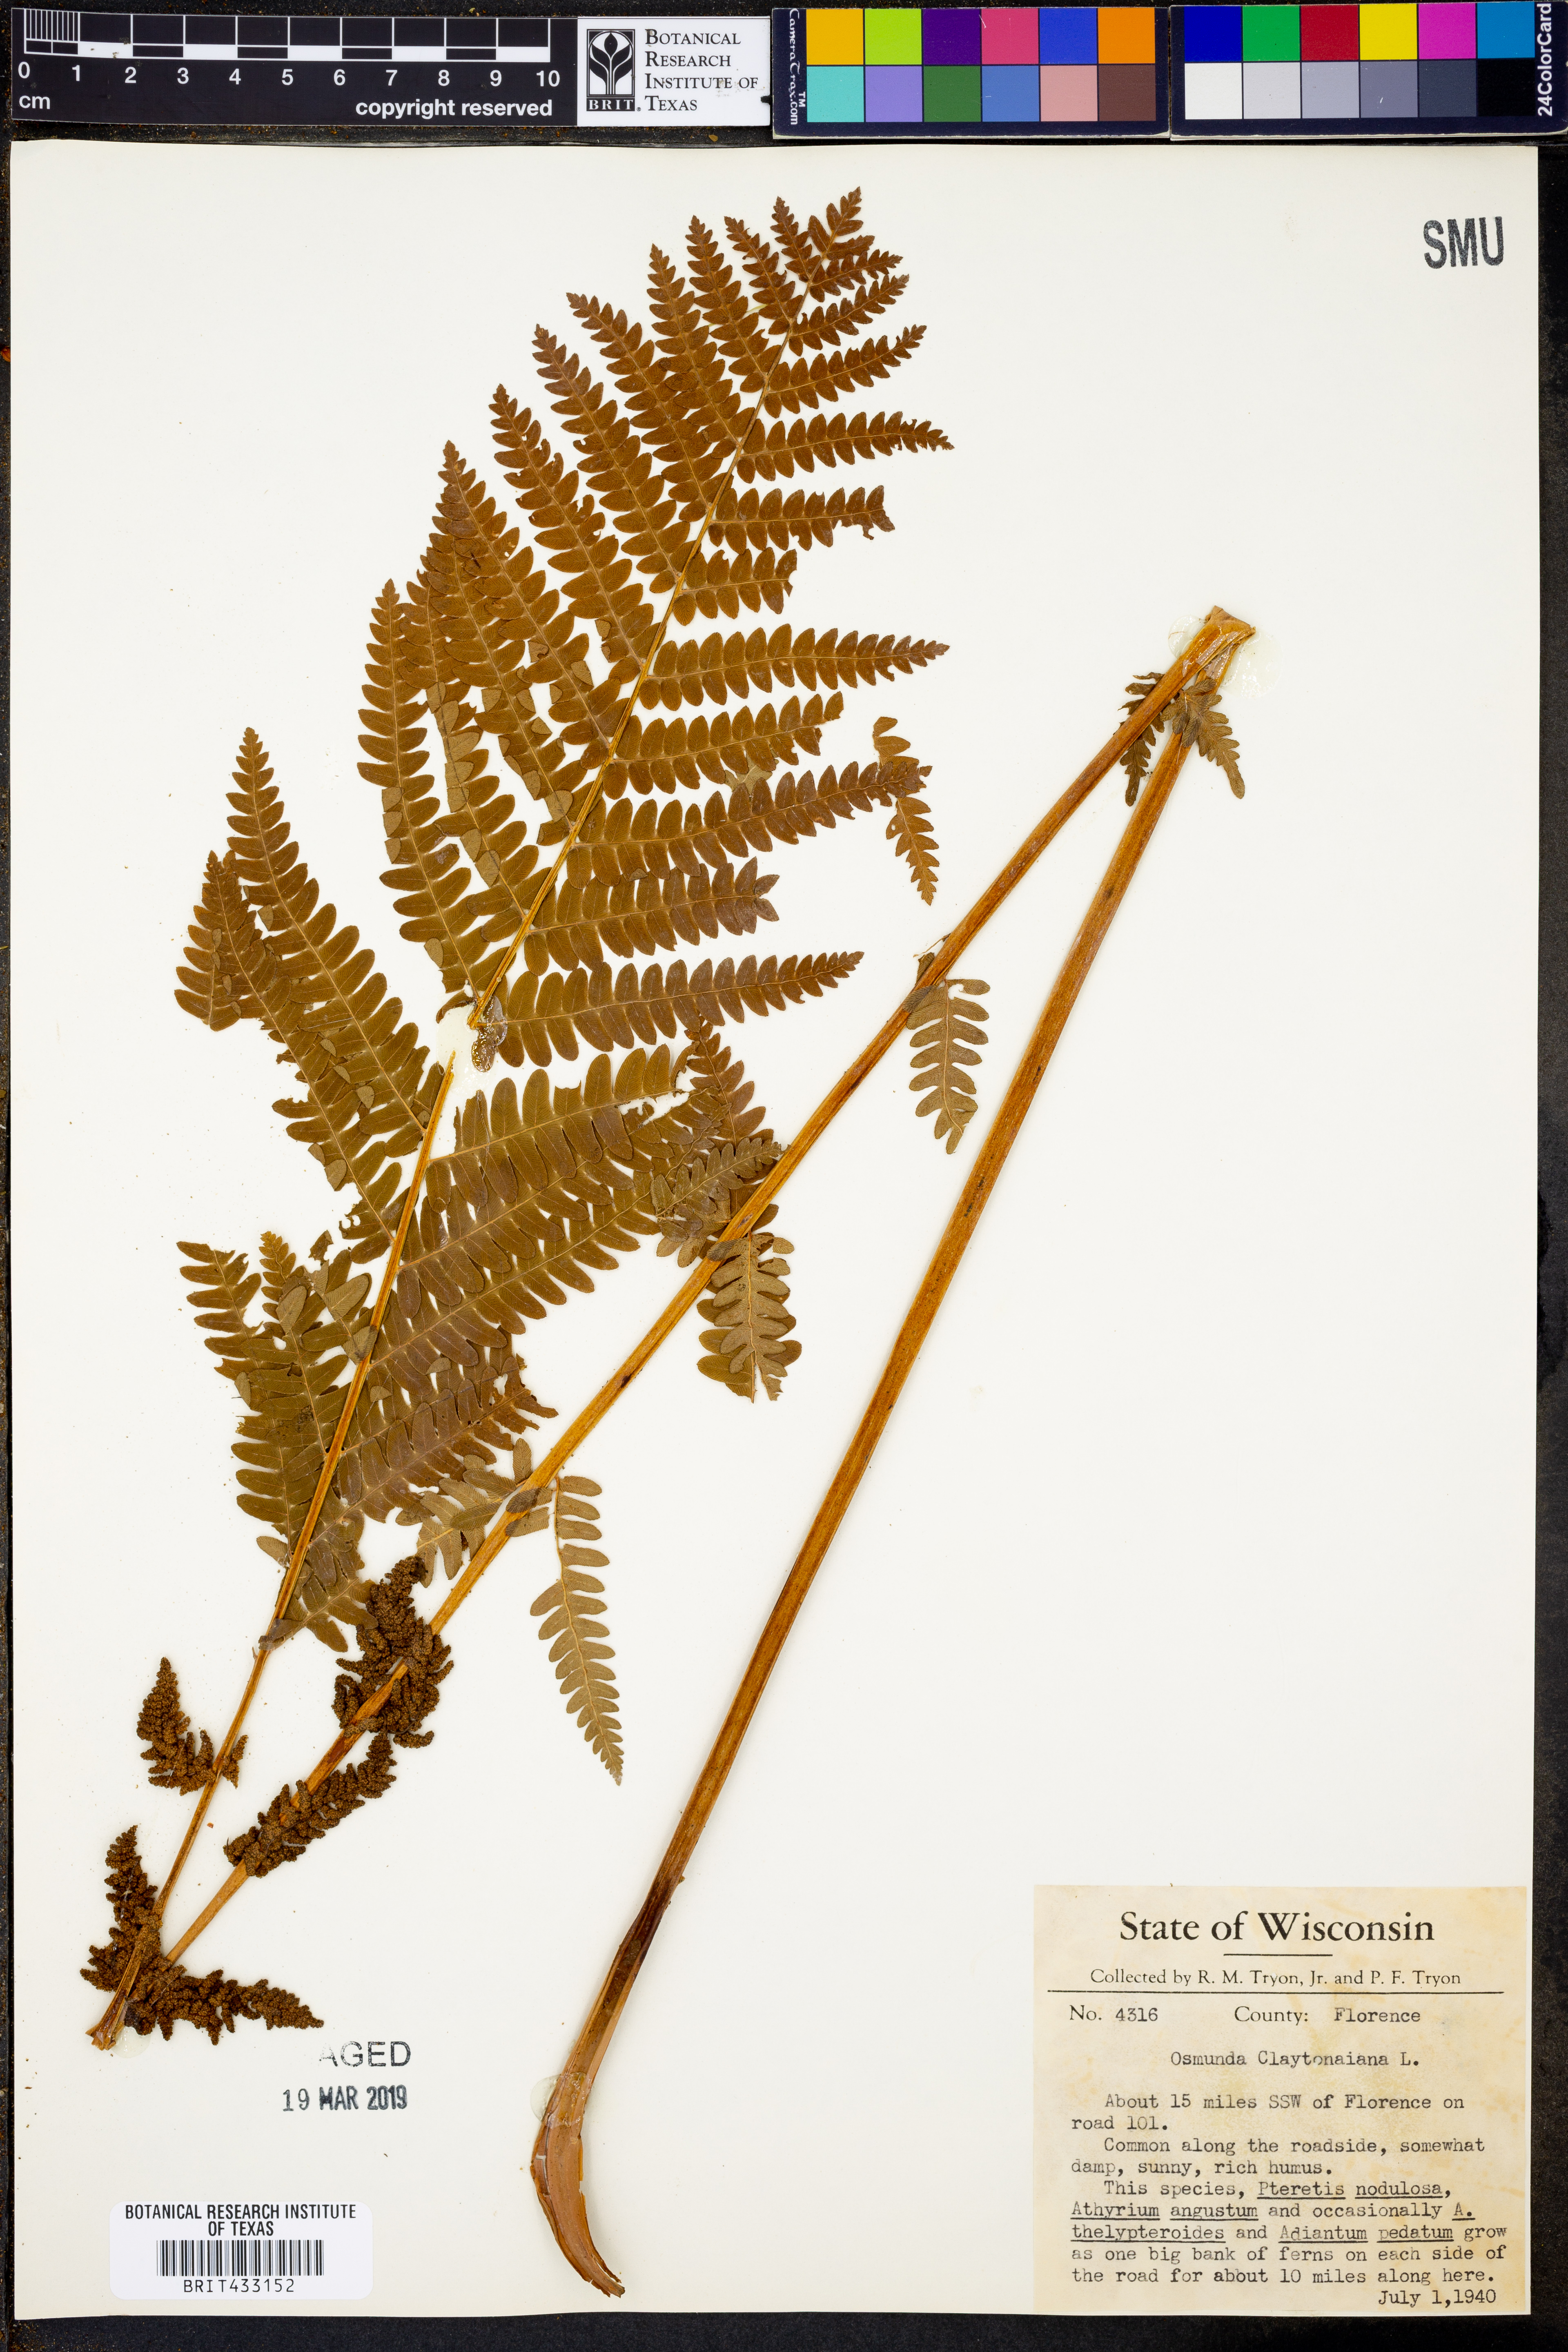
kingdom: Plantae
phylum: Tracheophyta
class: Polypodiopsida
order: Osmundales
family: Osmundaceae
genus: Claytosmunda
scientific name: Claytosmunda claytoniana
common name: Clayton's fern
